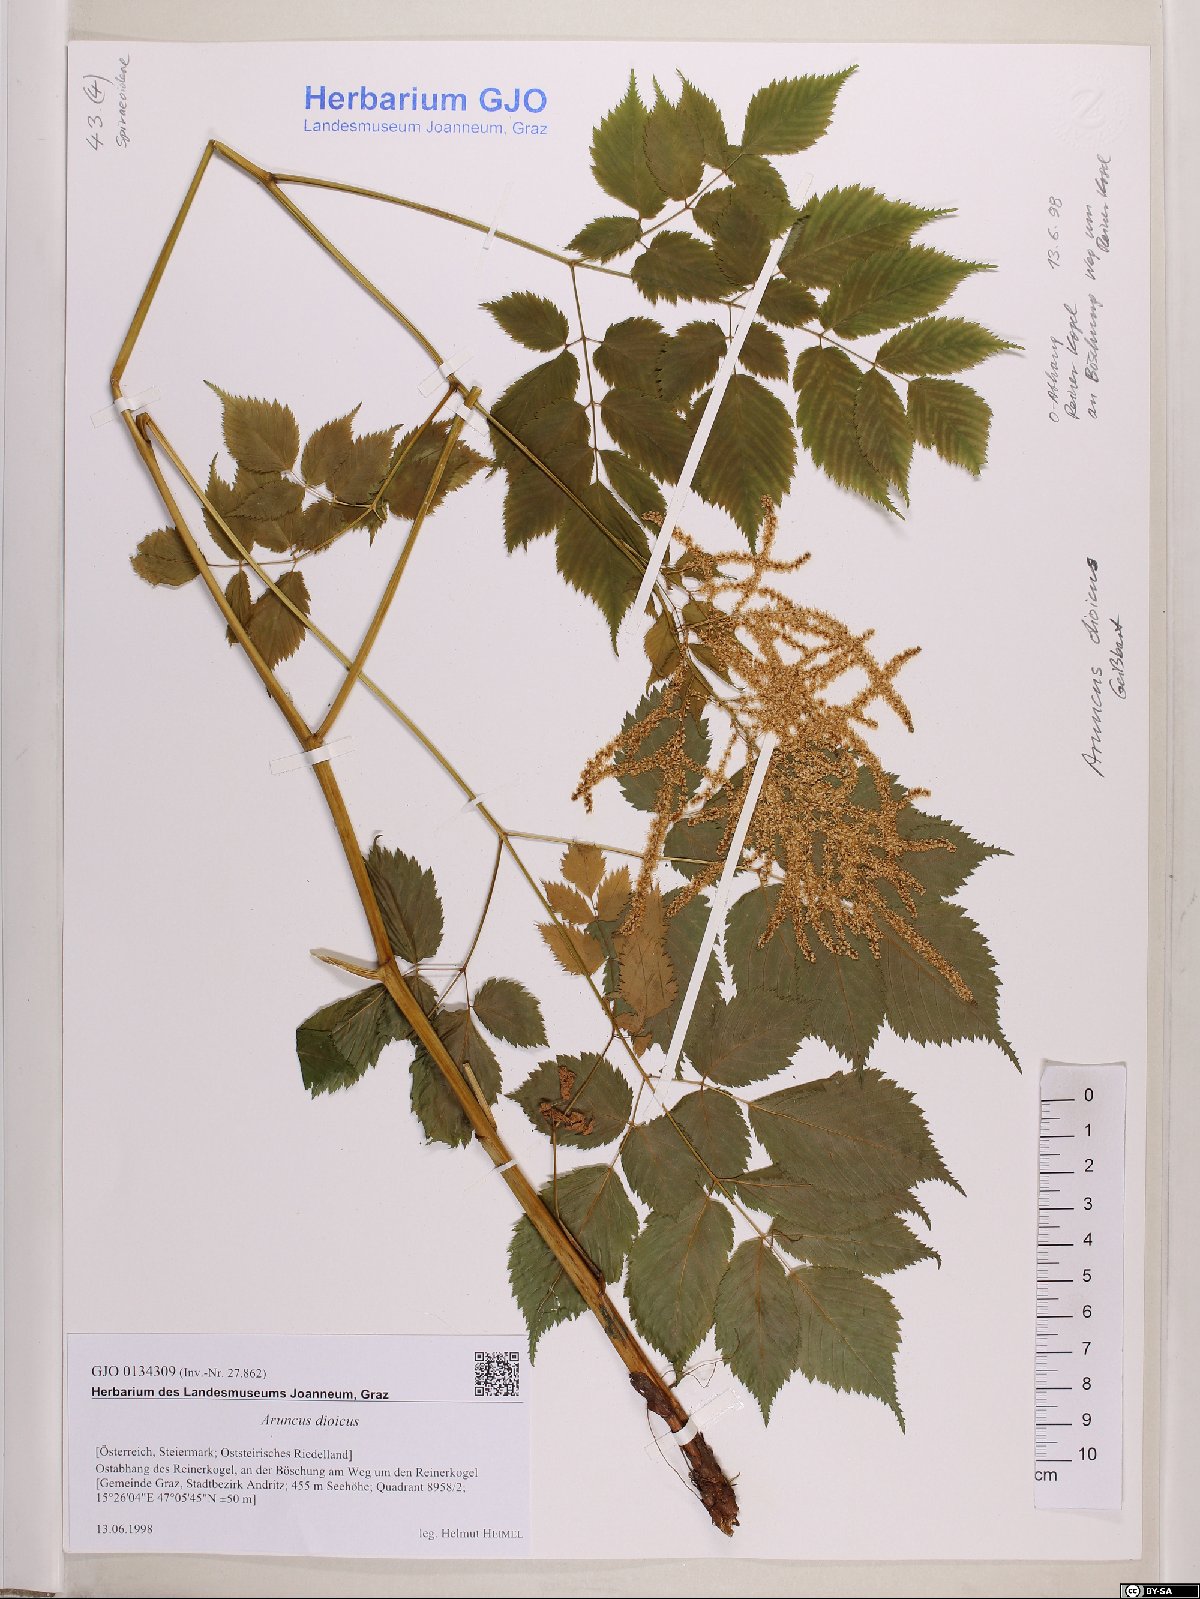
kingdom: Plantae
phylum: Tracheophyta
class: Magnoliopsida
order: Rosales
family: Rosaceae
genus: Aruncus
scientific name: Aruncus dioicus
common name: Buck's-beard
